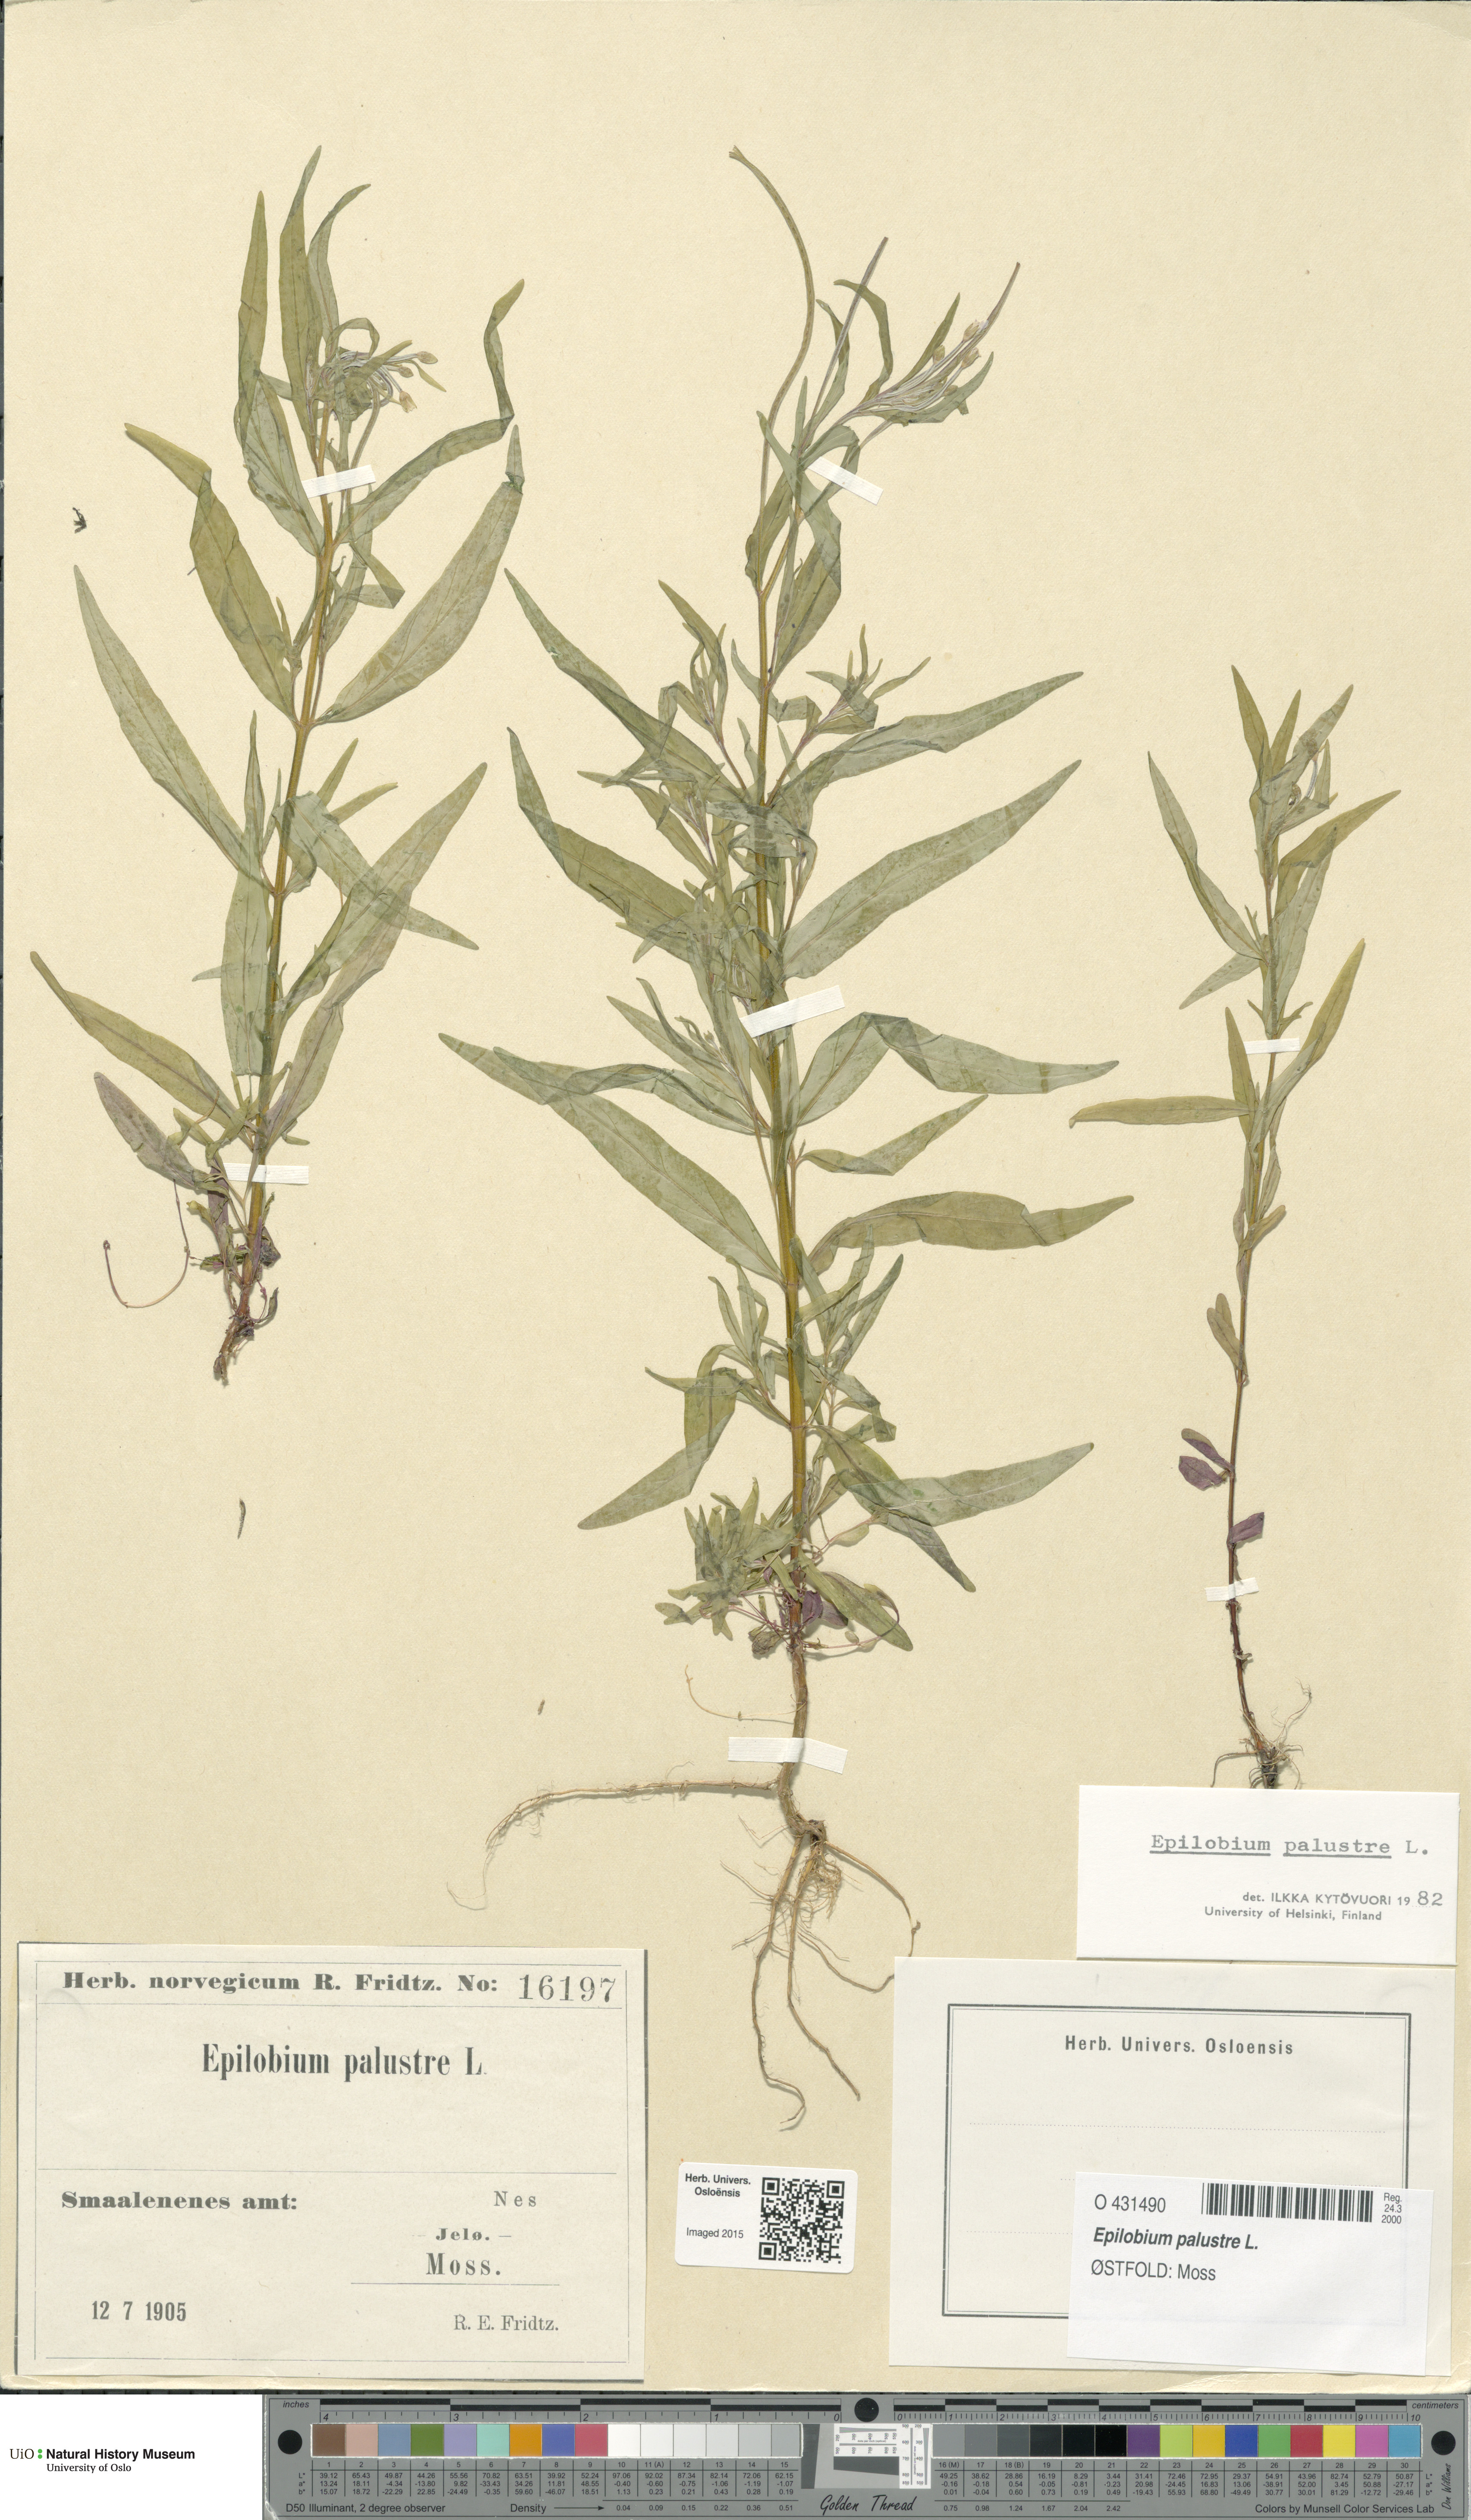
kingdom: Plantae
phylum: Tracheophyta
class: Magnoliopsida
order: Myrtales
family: Onagraceae
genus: Epilobium
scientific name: Epilobium palustre
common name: Marsh willowherb
